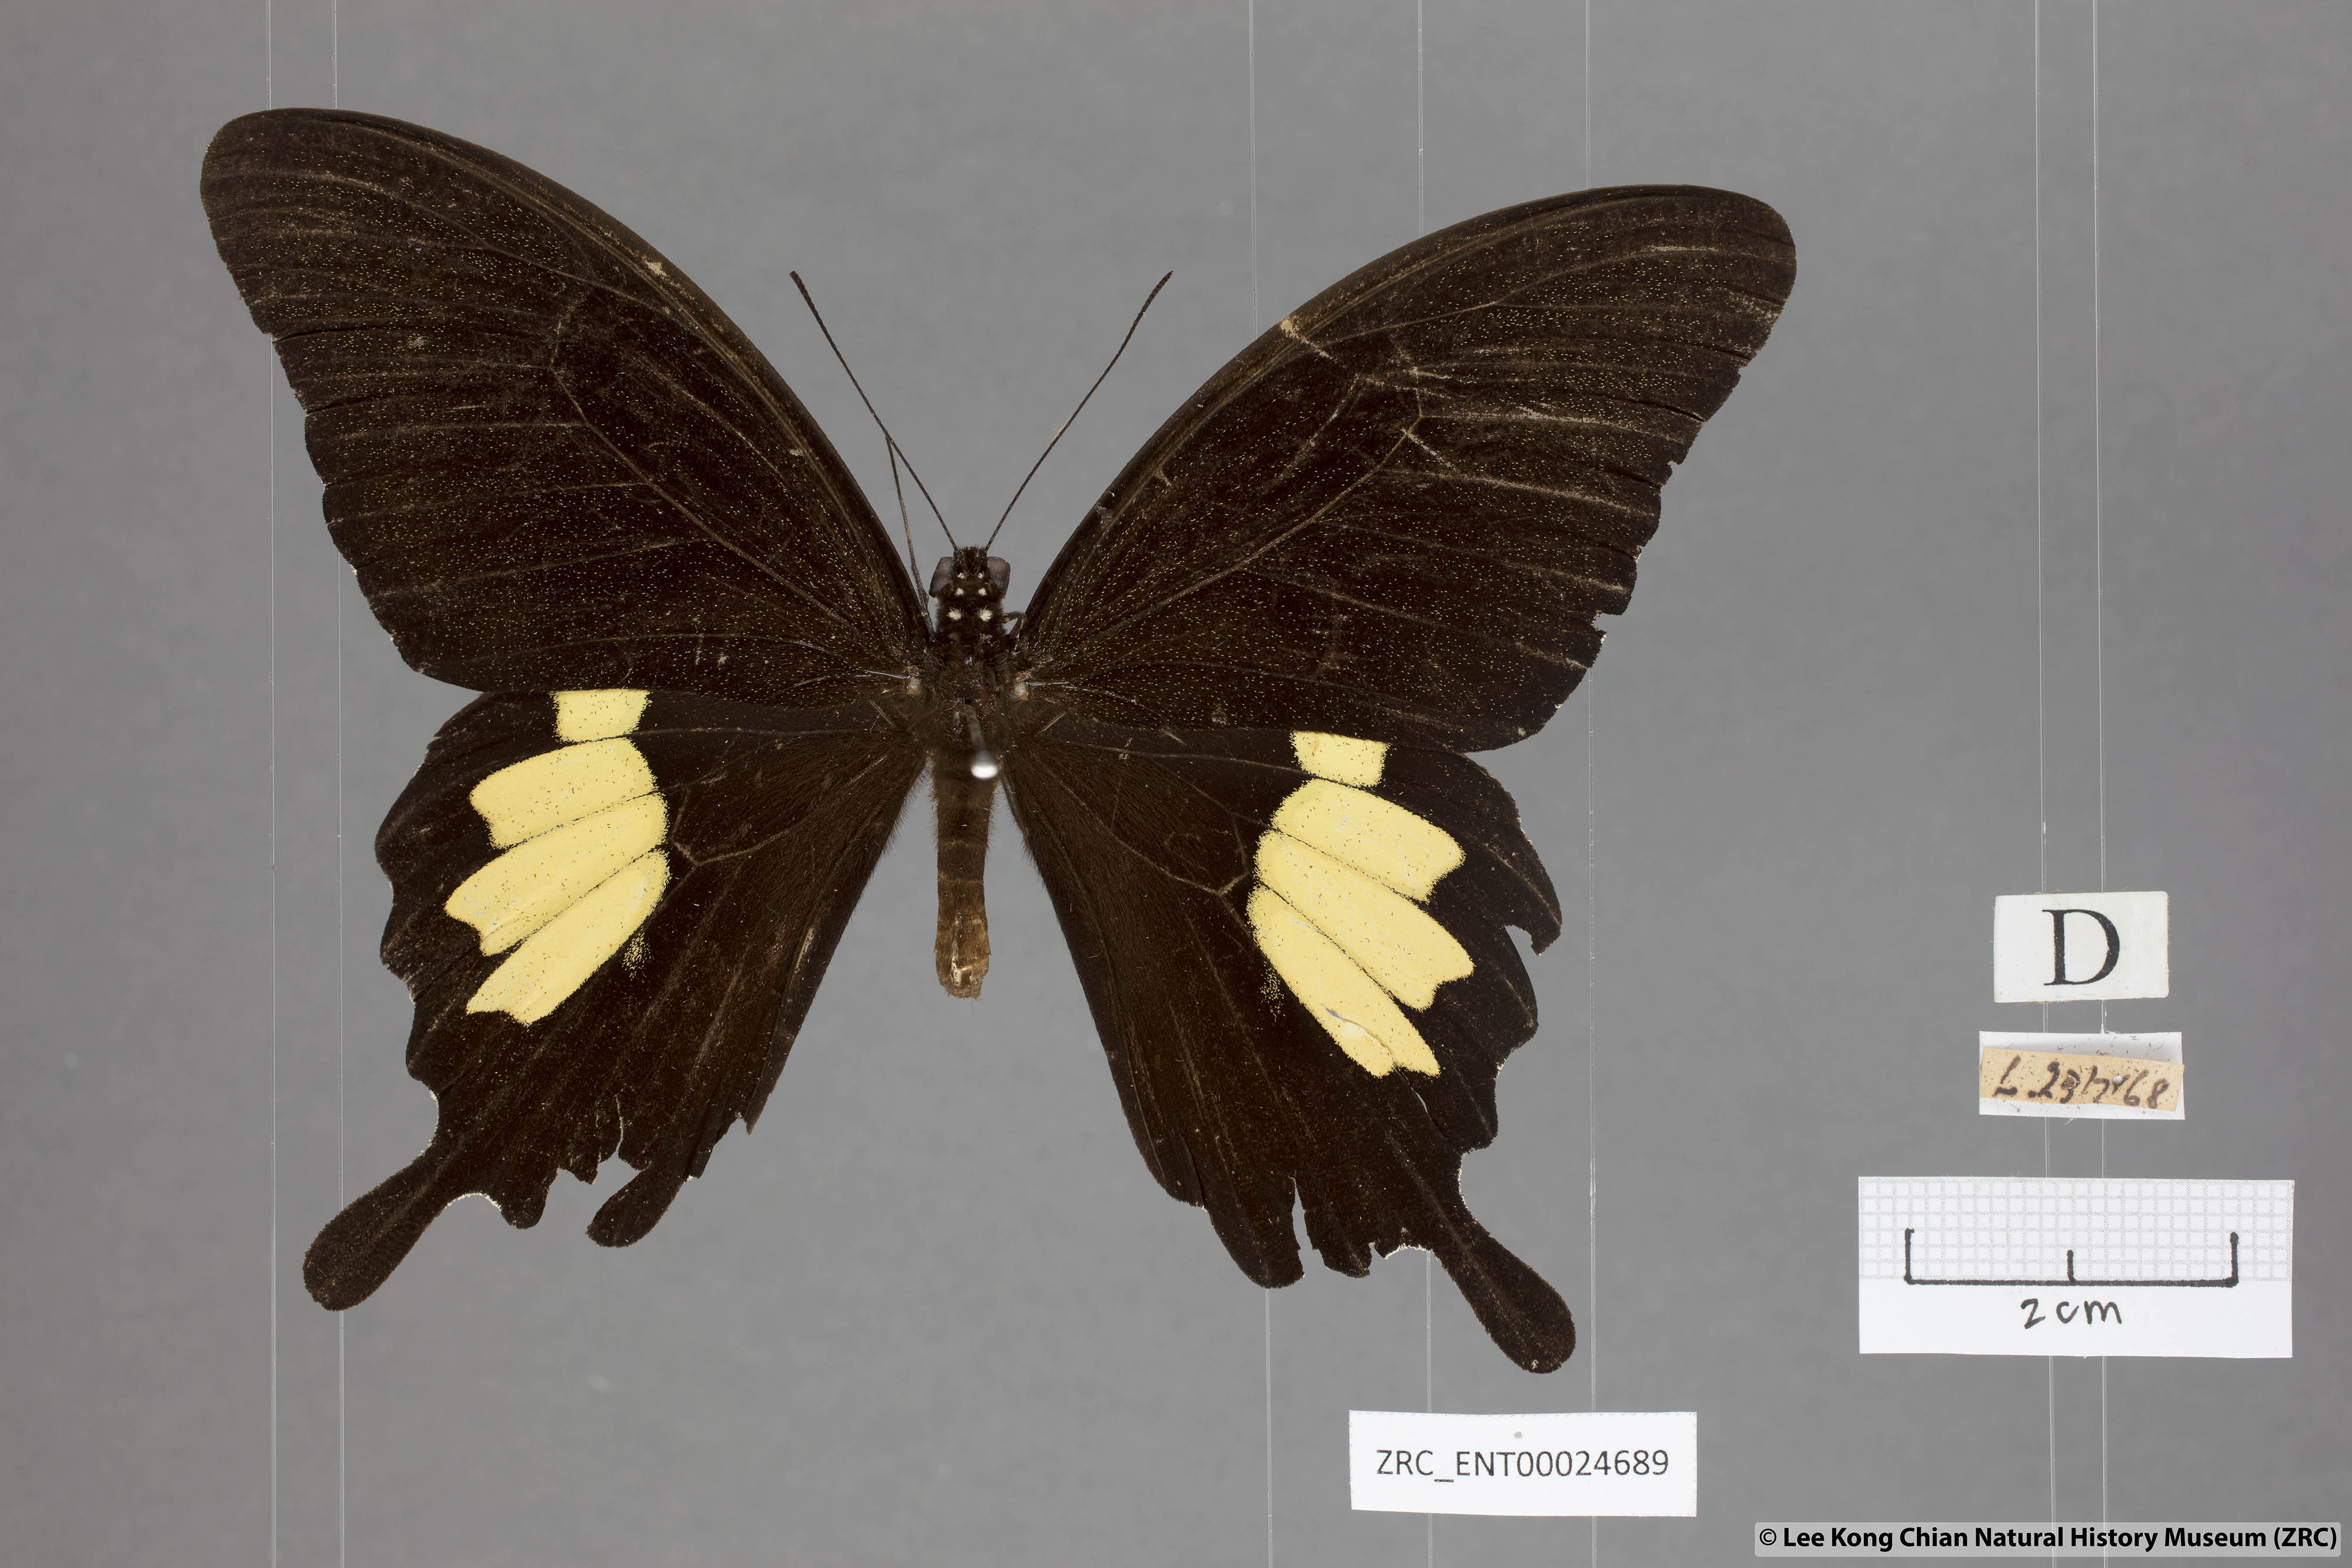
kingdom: Animalia
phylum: Arthropoda
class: Insecta
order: Lepidoptera
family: Papilionidae
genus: Papilio
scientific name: Papilio nephelus
